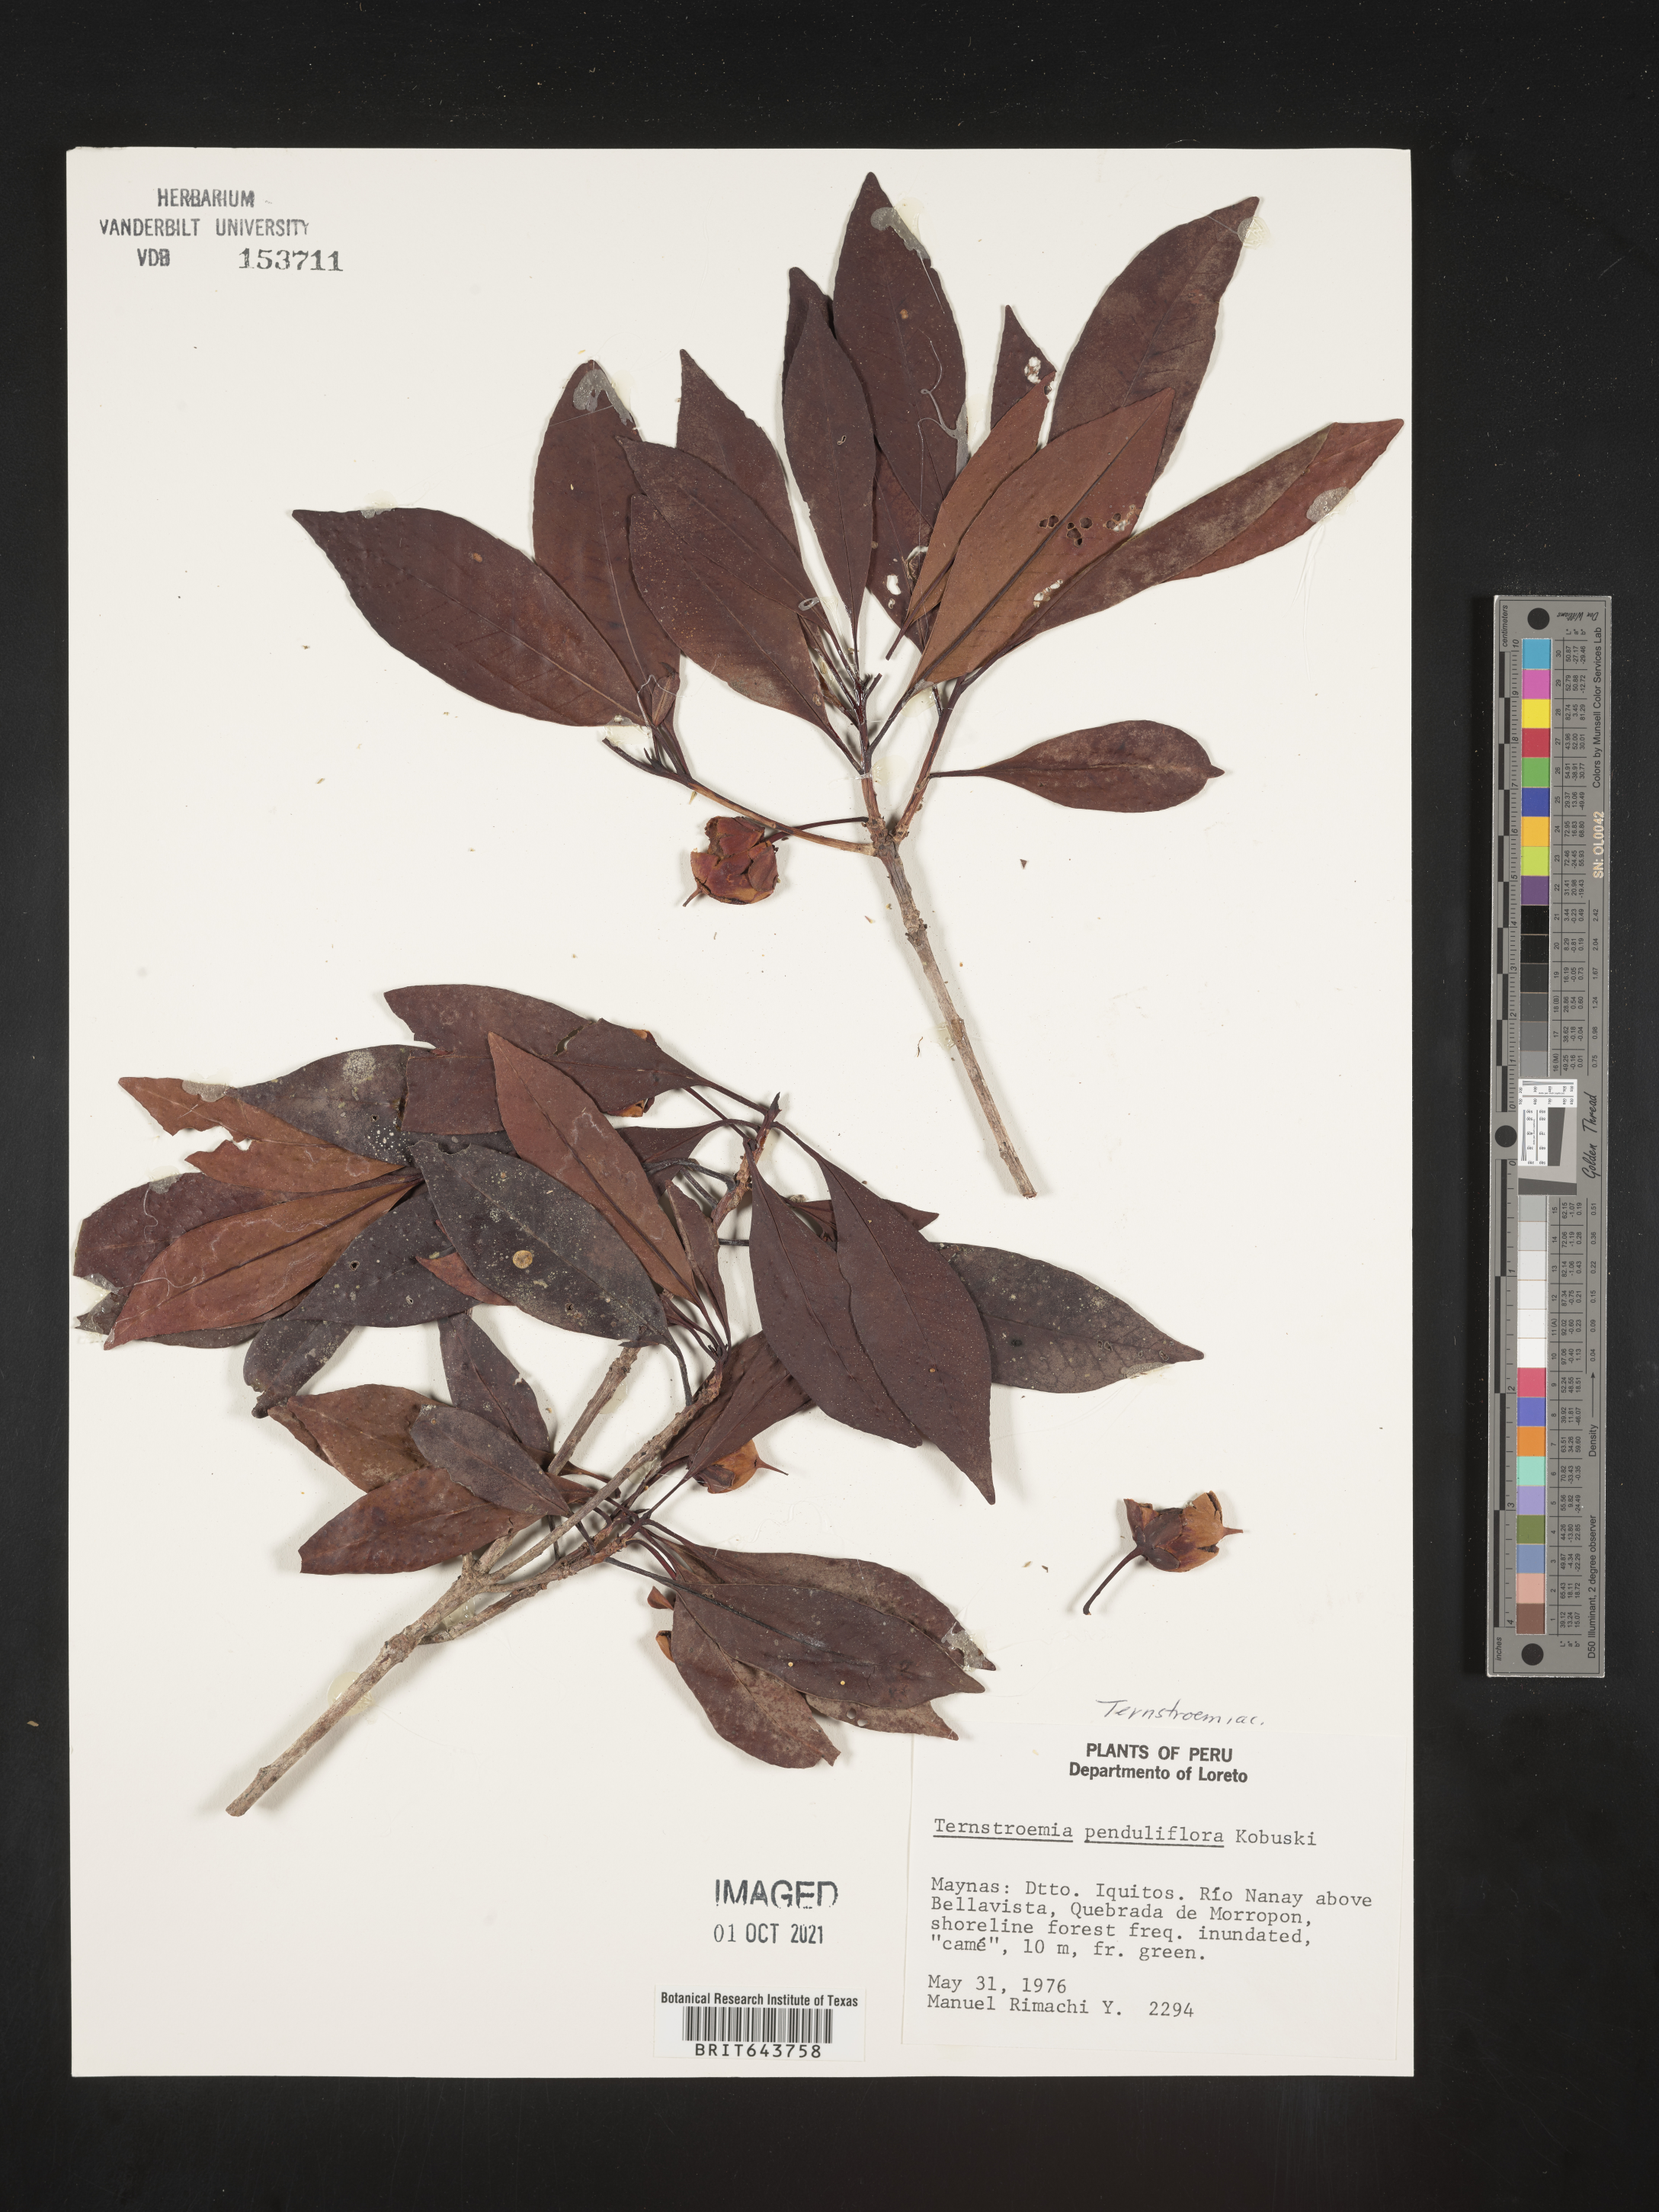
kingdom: Plantae
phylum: Tracheophyta
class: Magnoliopsida
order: Ericales
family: Pentaphylacaceae
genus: Ternstroemia
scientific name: Ternstroemia
